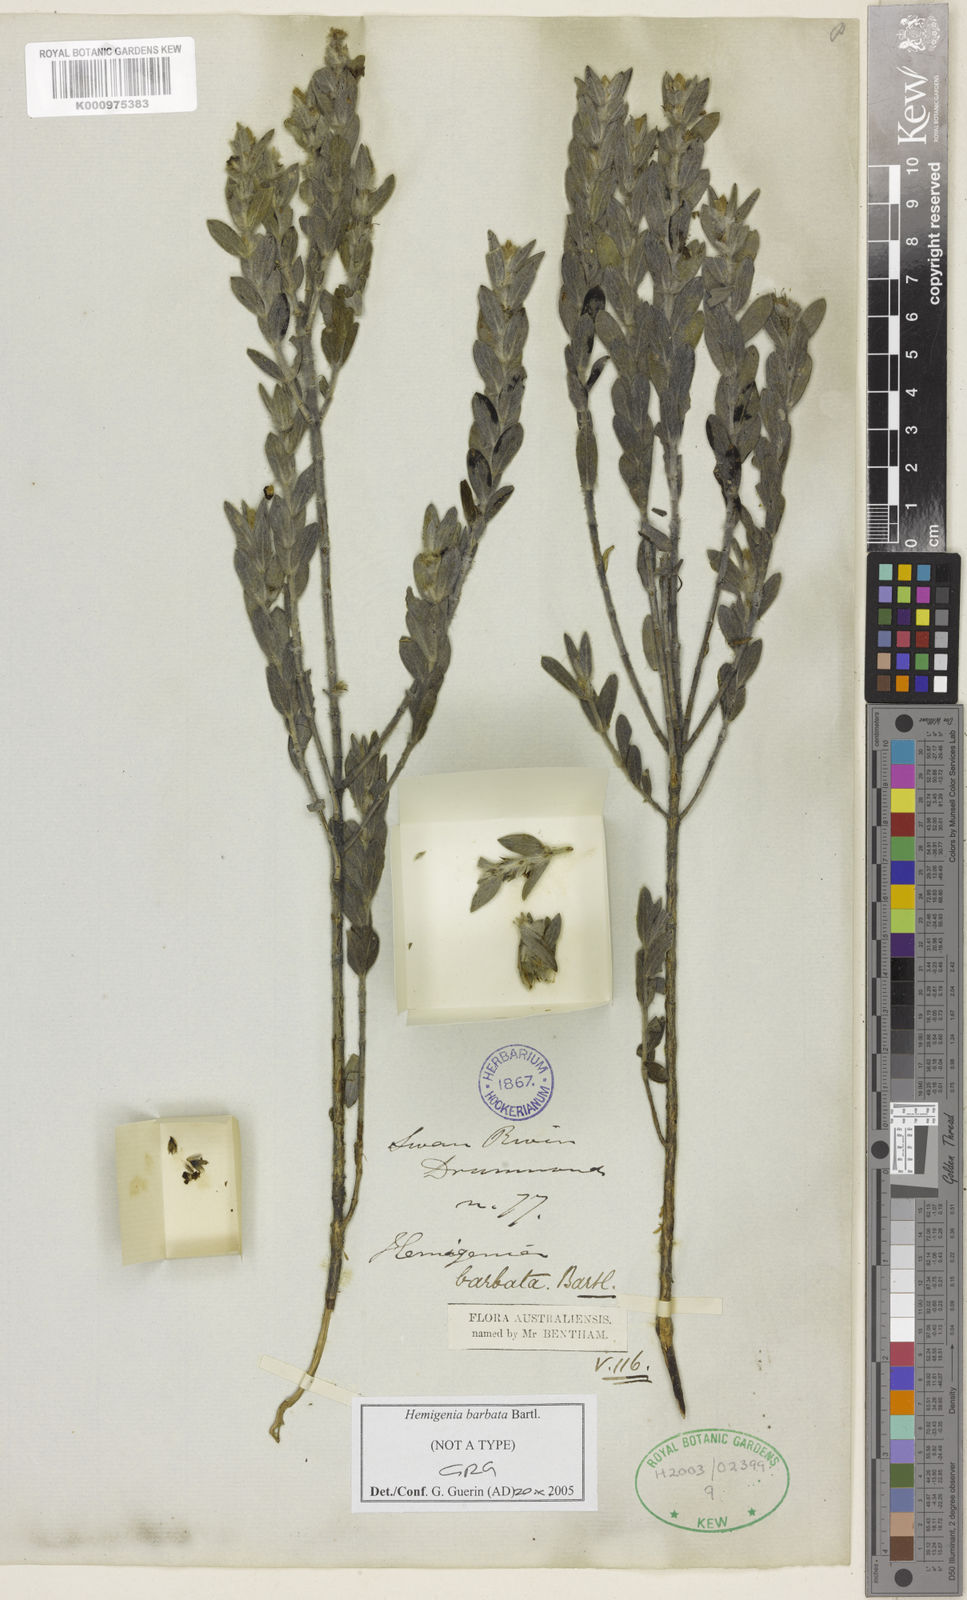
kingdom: Plantae
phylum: Tracheophyta
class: Magnoliopsida
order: Lamiales
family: Lamiaceae
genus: Hemigenia
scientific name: Hemigenia barbata
